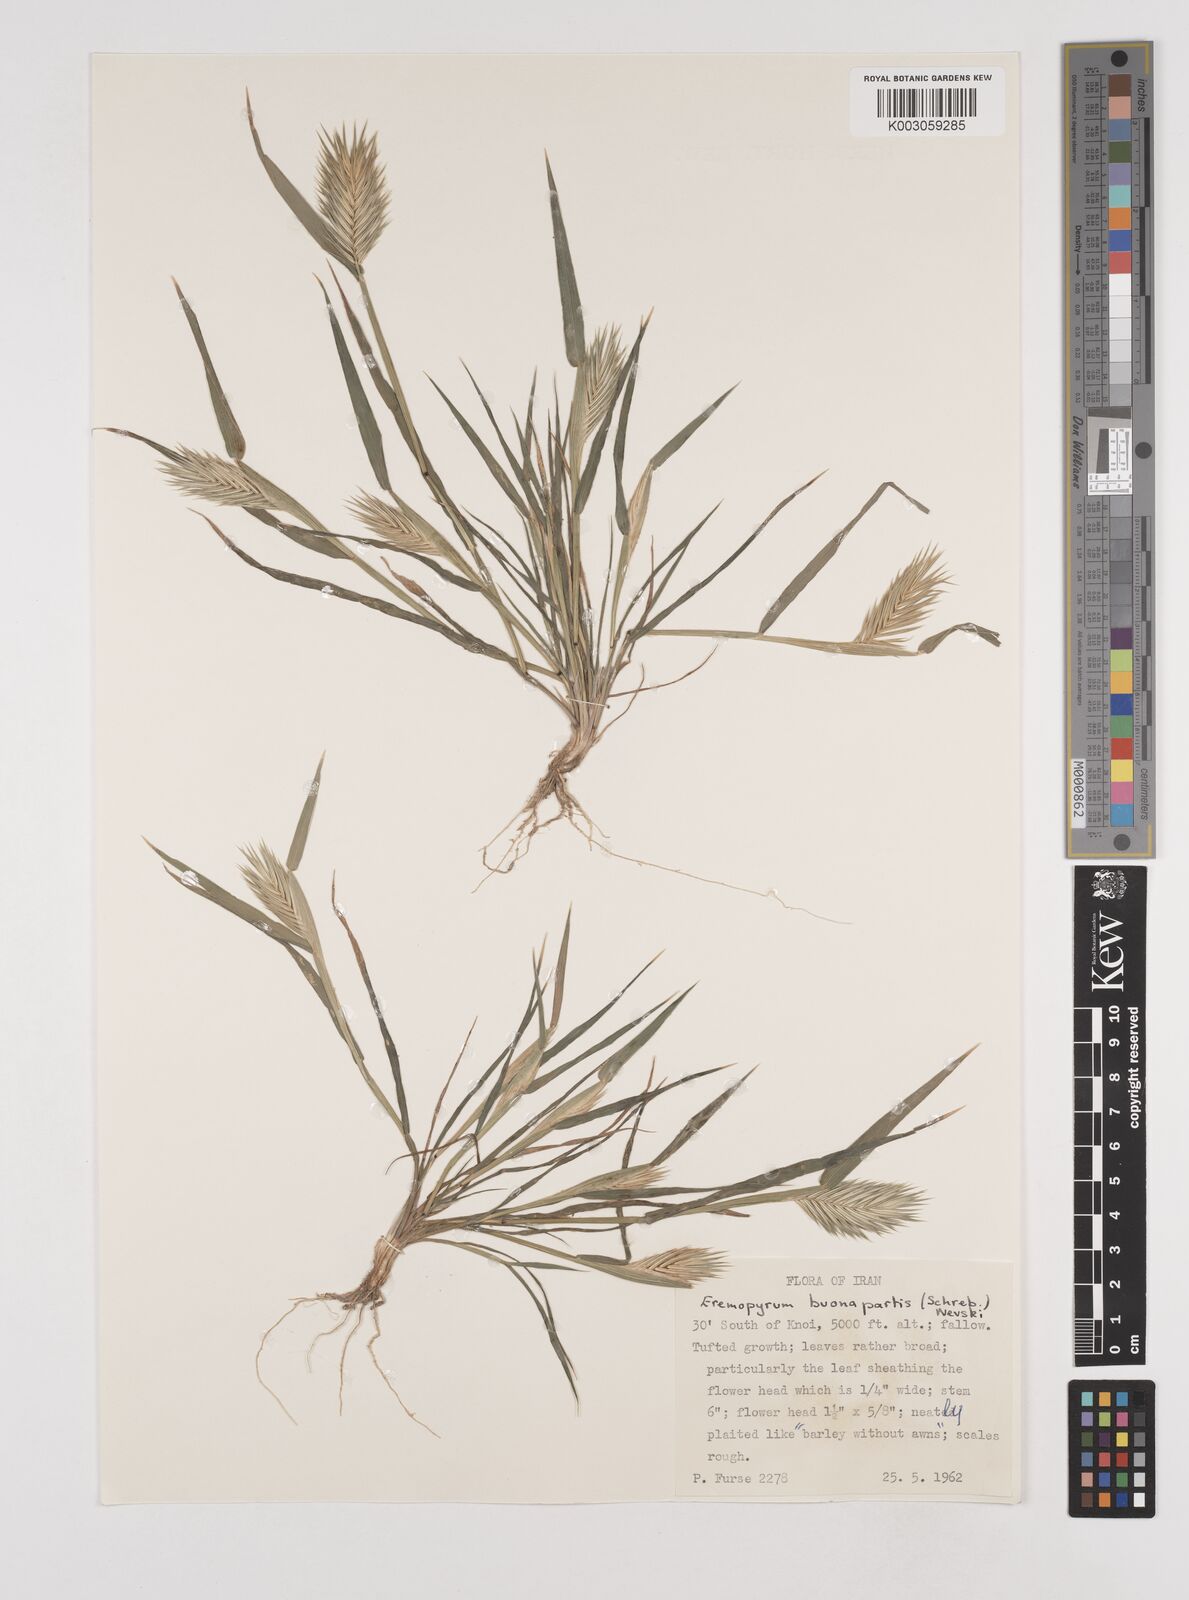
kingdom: Plantae
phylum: Tracheophyta
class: Liliopsida
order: Poales
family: Poaceae
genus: Eremopyrum
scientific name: Eremopyrum bonaepartis
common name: Tapertip false wheatgrass
